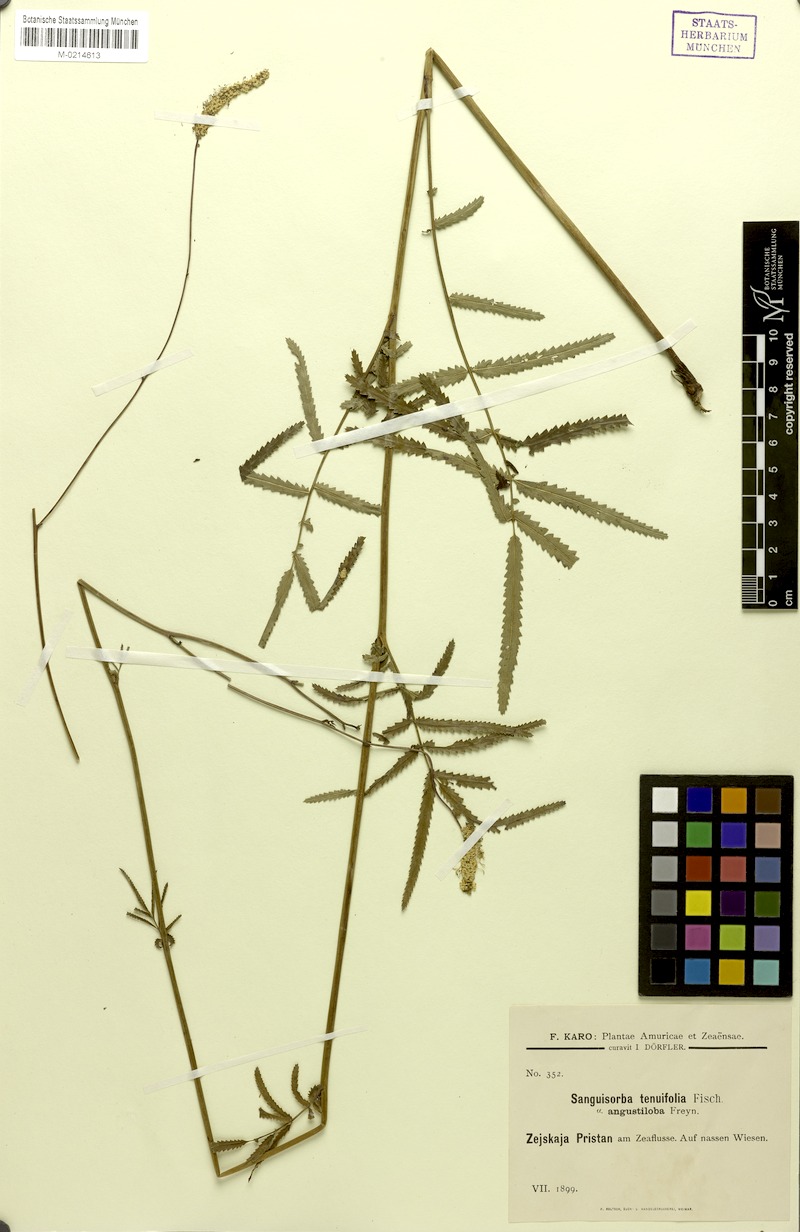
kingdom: Plantae
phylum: Tracheophyta
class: Magnoliopsida
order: Rosales
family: Rosaceae
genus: Poterium
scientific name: Poterium tenuifolium
